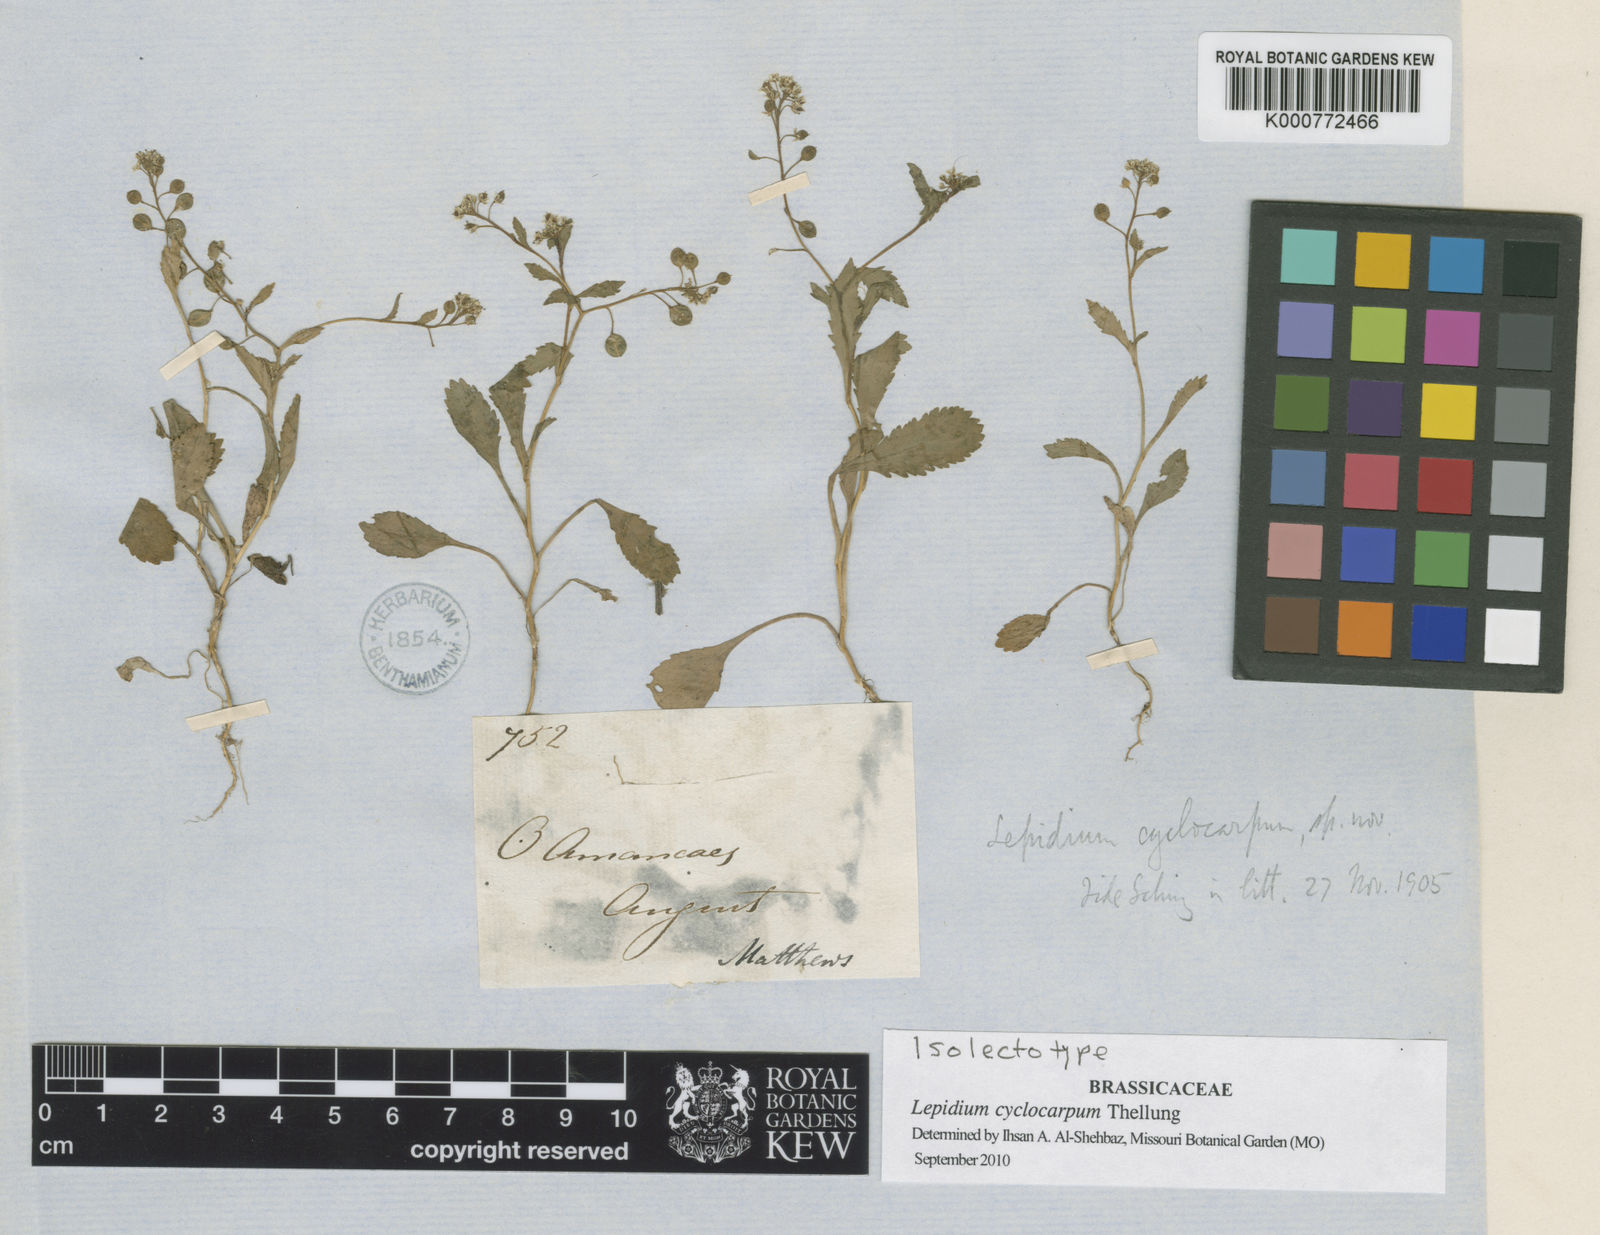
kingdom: Plantae
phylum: Tracheophyta
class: Magnoliopsida
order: Brassicales
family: Brassicaceae
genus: Lepidium
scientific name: Lepidium cyclocarpum
